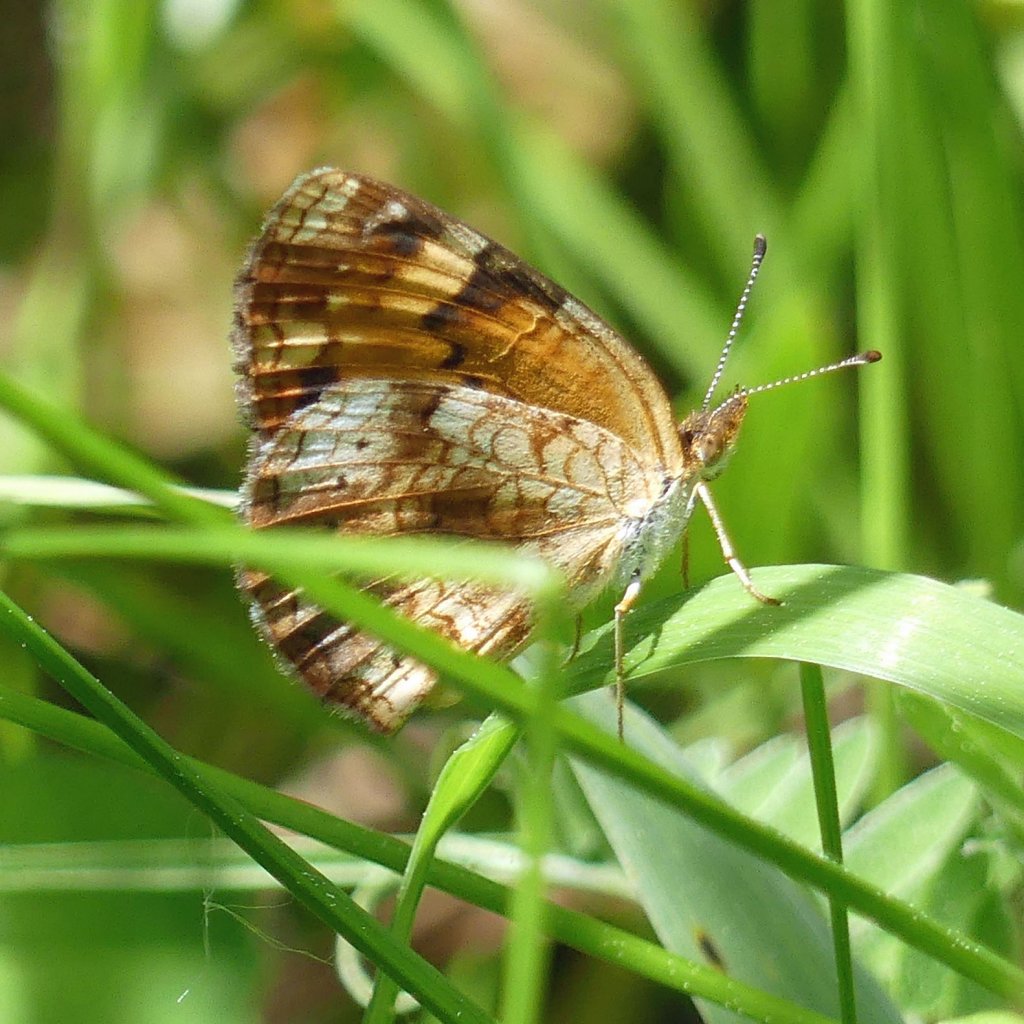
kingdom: Animalia
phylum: Arthropoda
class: Insecta
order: Lepidoptera
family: Nymphalidae
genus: Phyciodes
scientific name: Phyciodes tharos
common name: Pearl Crescent
